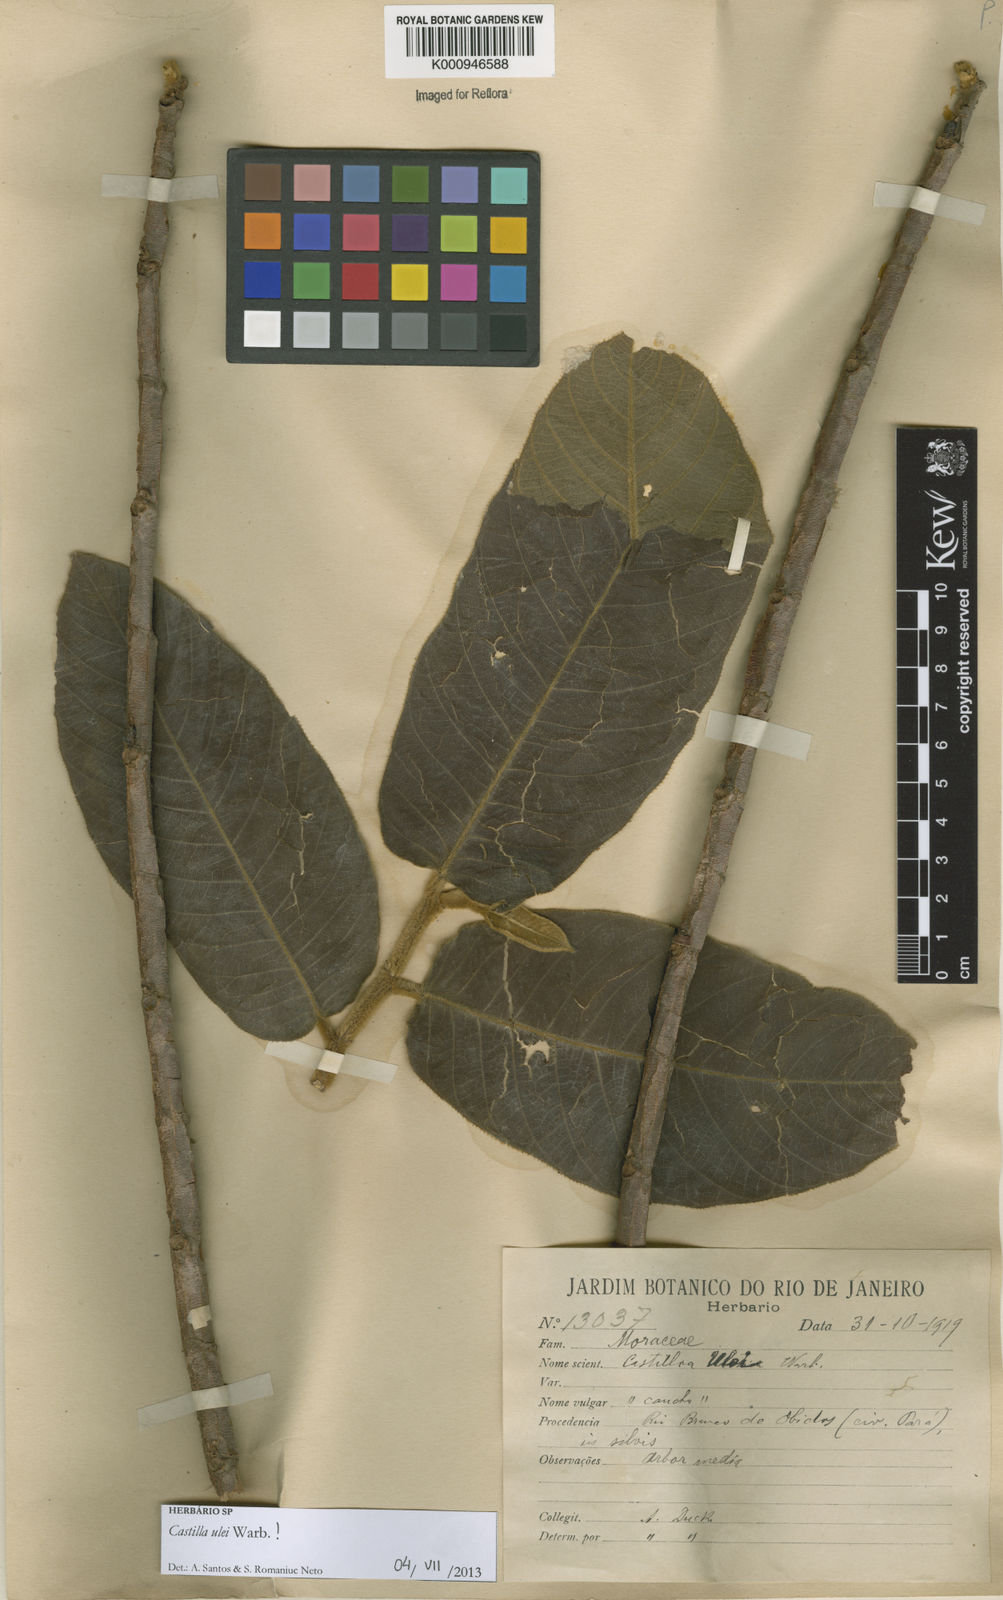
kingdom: Plantae
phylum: Tracheophyta
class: Magnoliopsida
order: Rosales
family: Moraceae
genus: Castilla
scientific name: Castilla ulei
